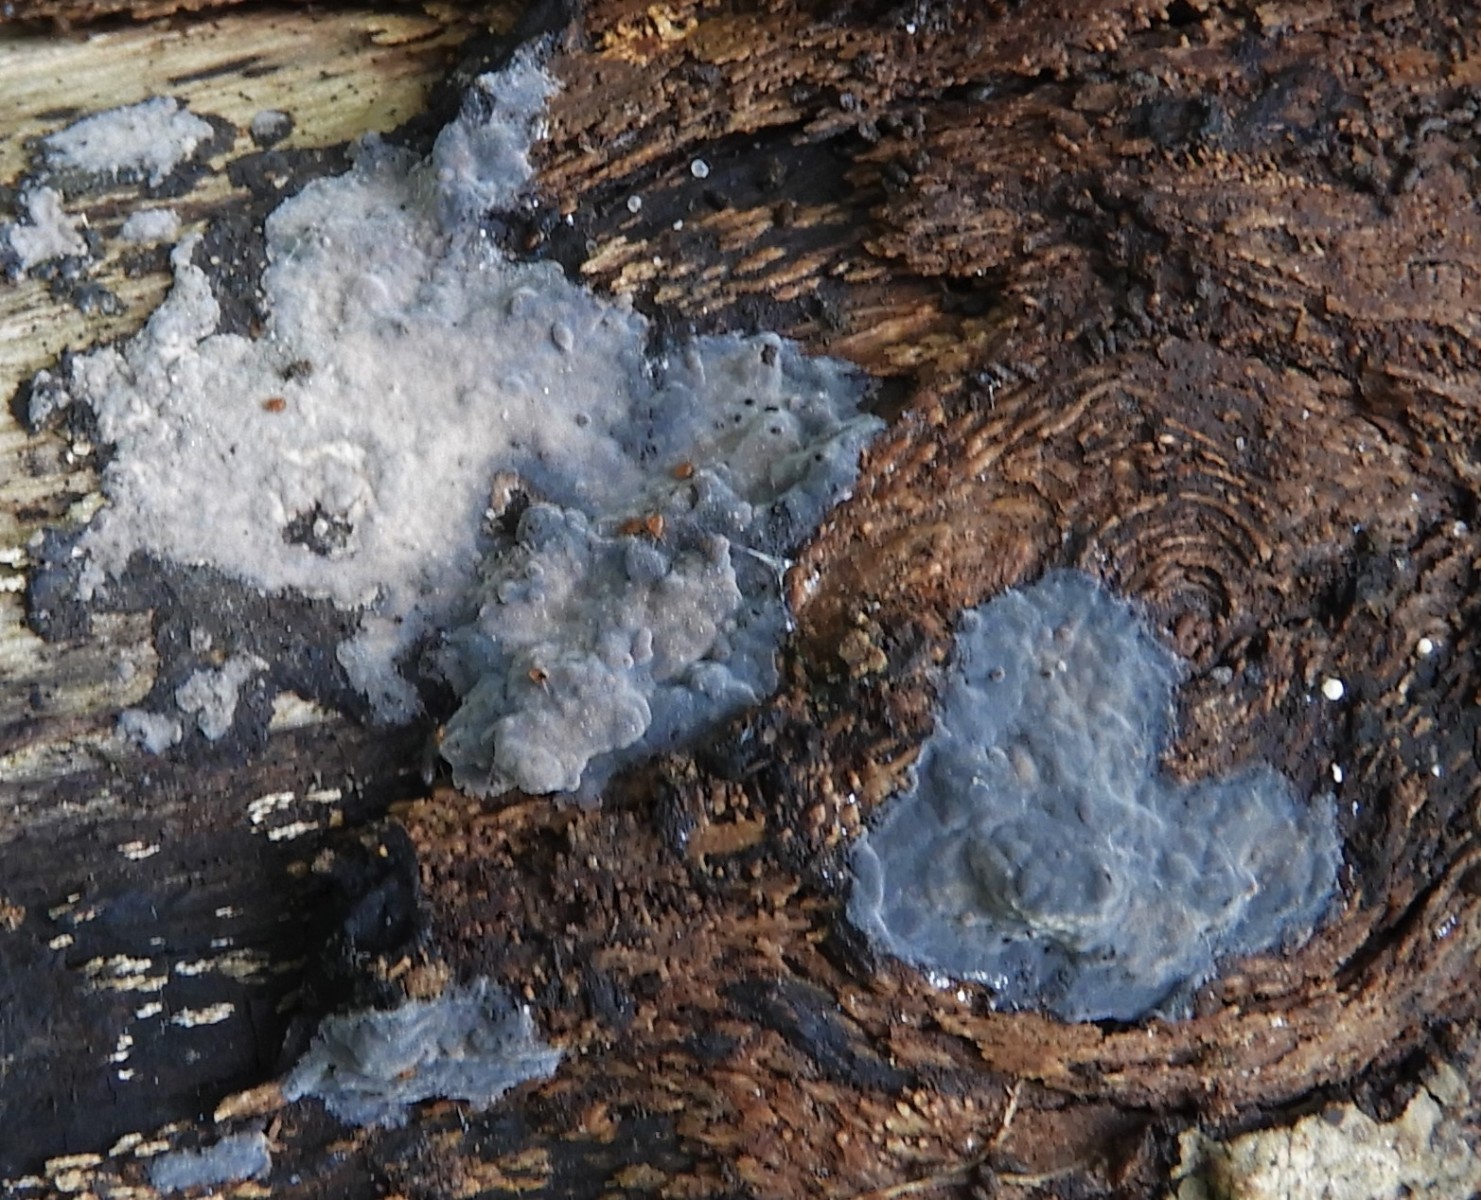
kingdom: Fungi
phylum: Basidiomycota
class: Agaricomycetes
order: Russulales
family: Peniophoraceae
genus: Peniophora
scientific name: Peniophora cinerea
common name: grå voksskind
